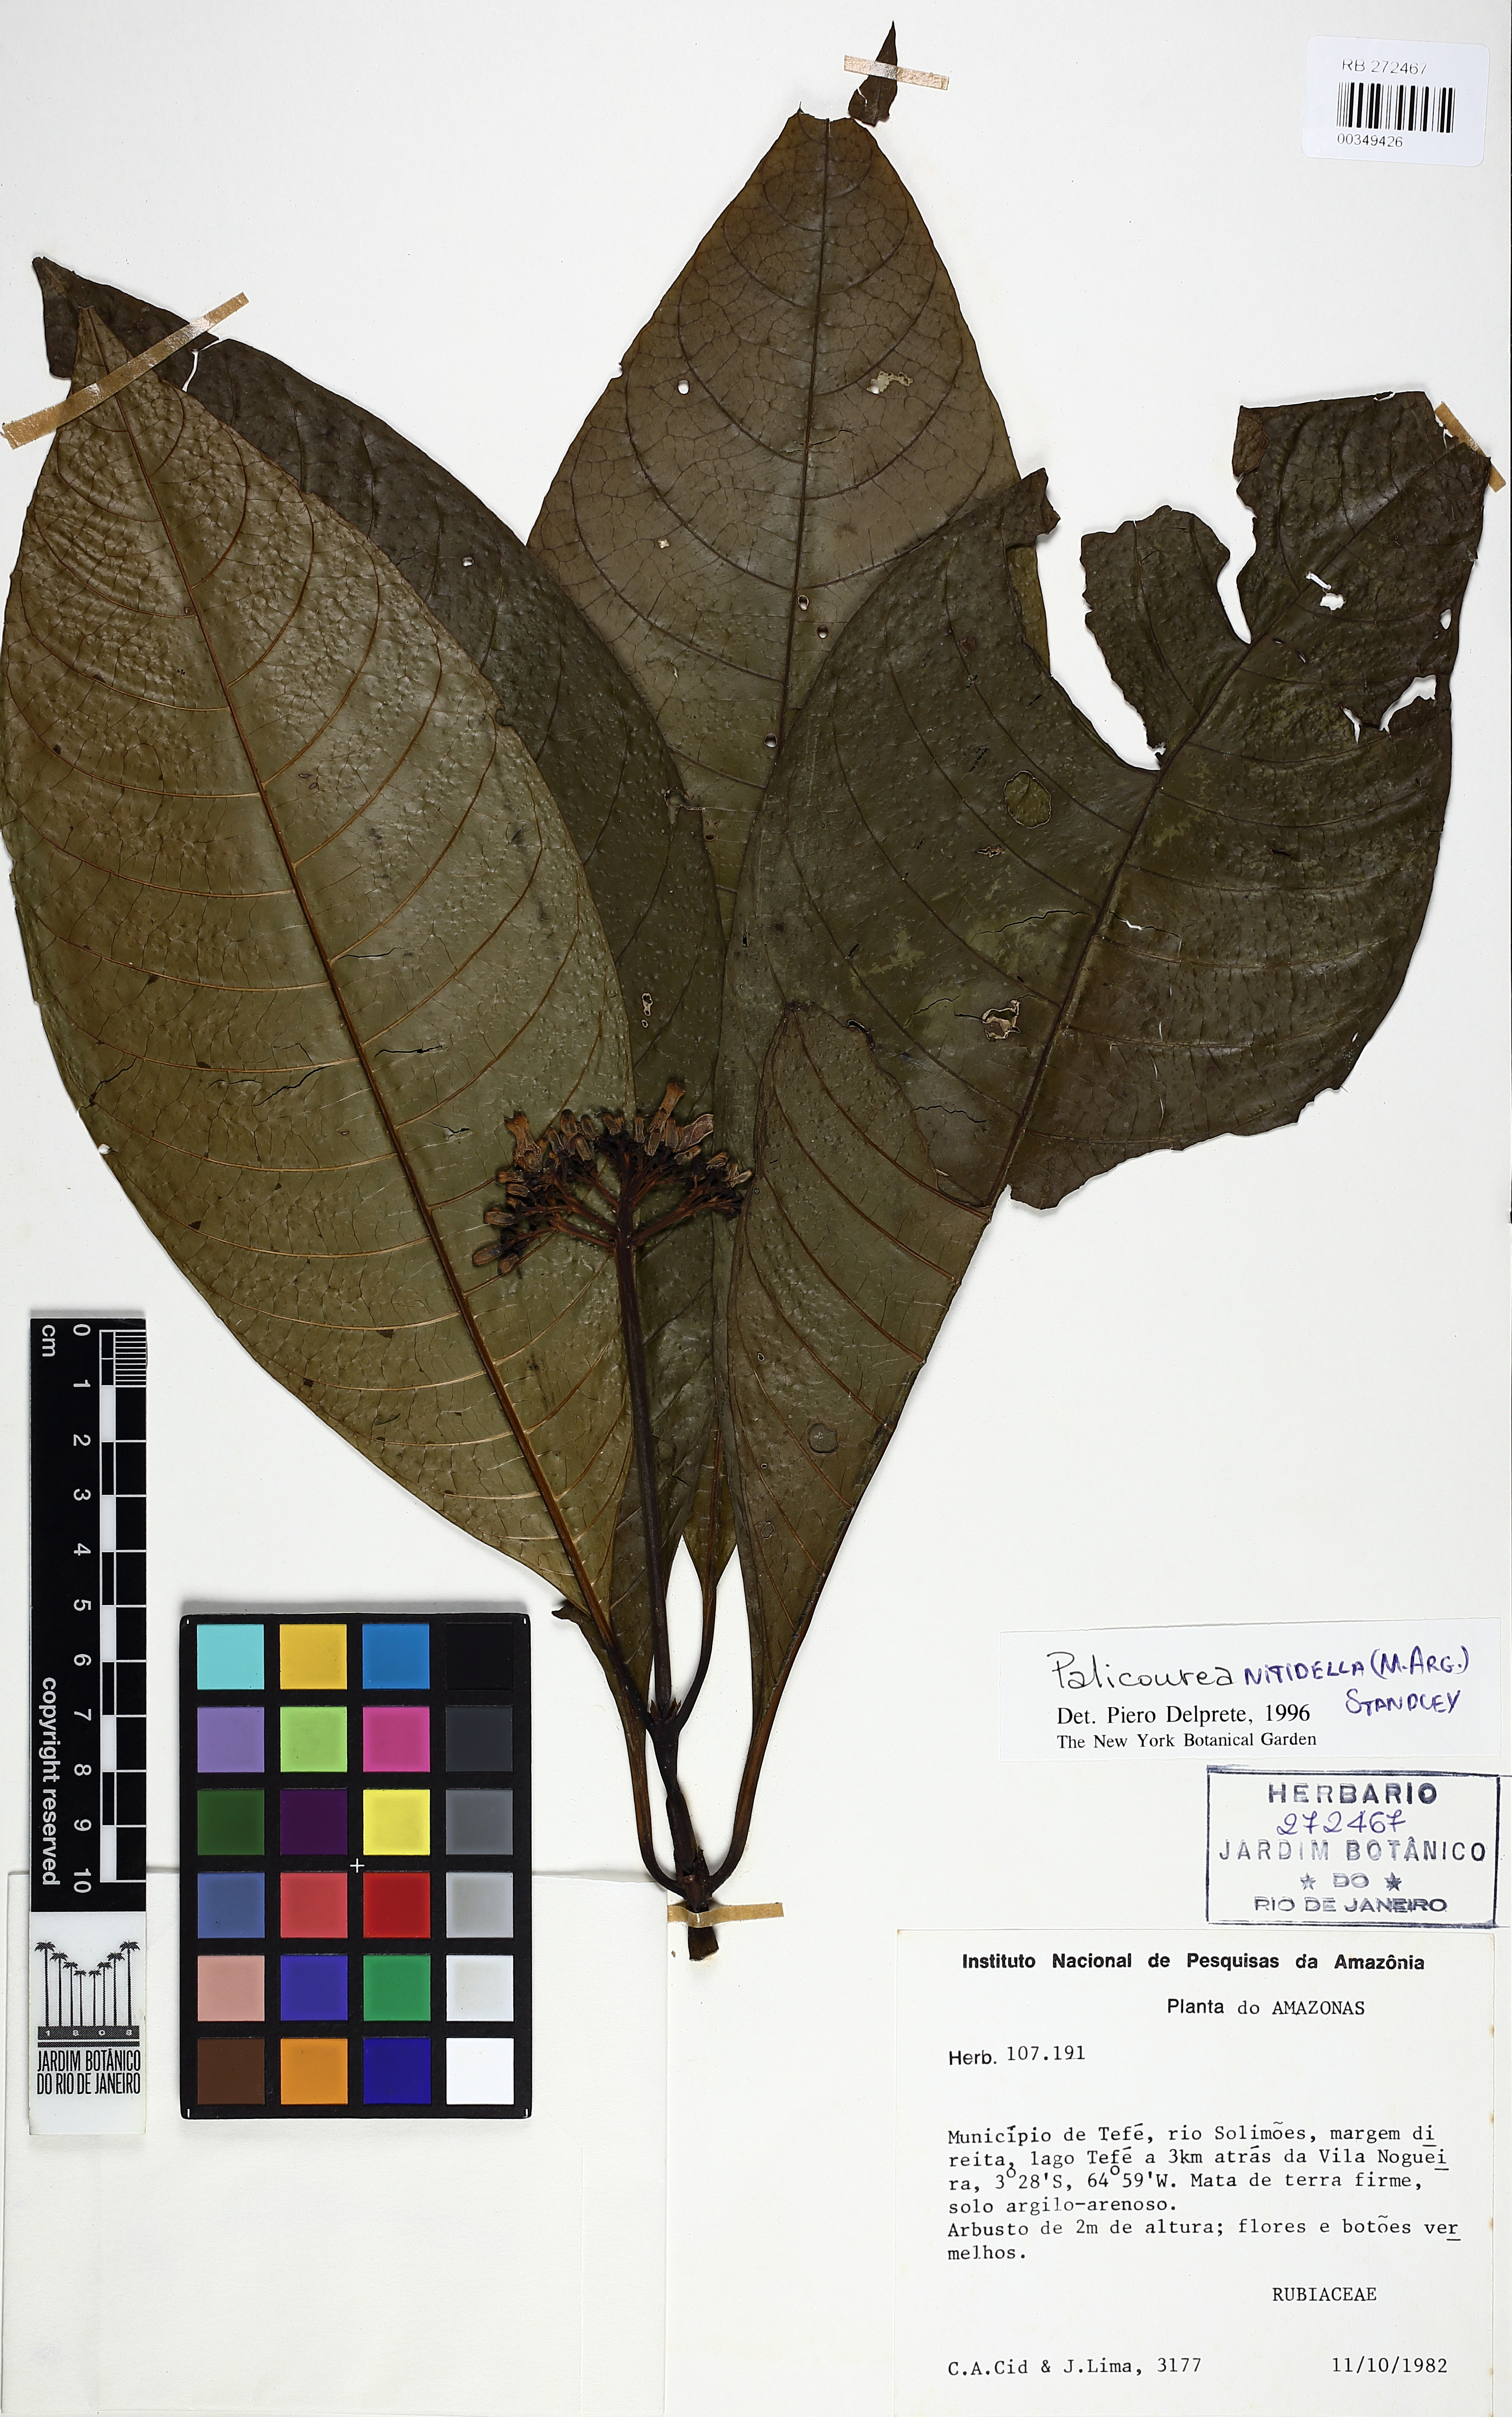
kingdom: Plantae
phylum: Tracheophyta
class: Magnoliopsida
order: Gentianales
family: Rubiaceae
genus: Palicourea
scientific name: Palicourea nitidella
